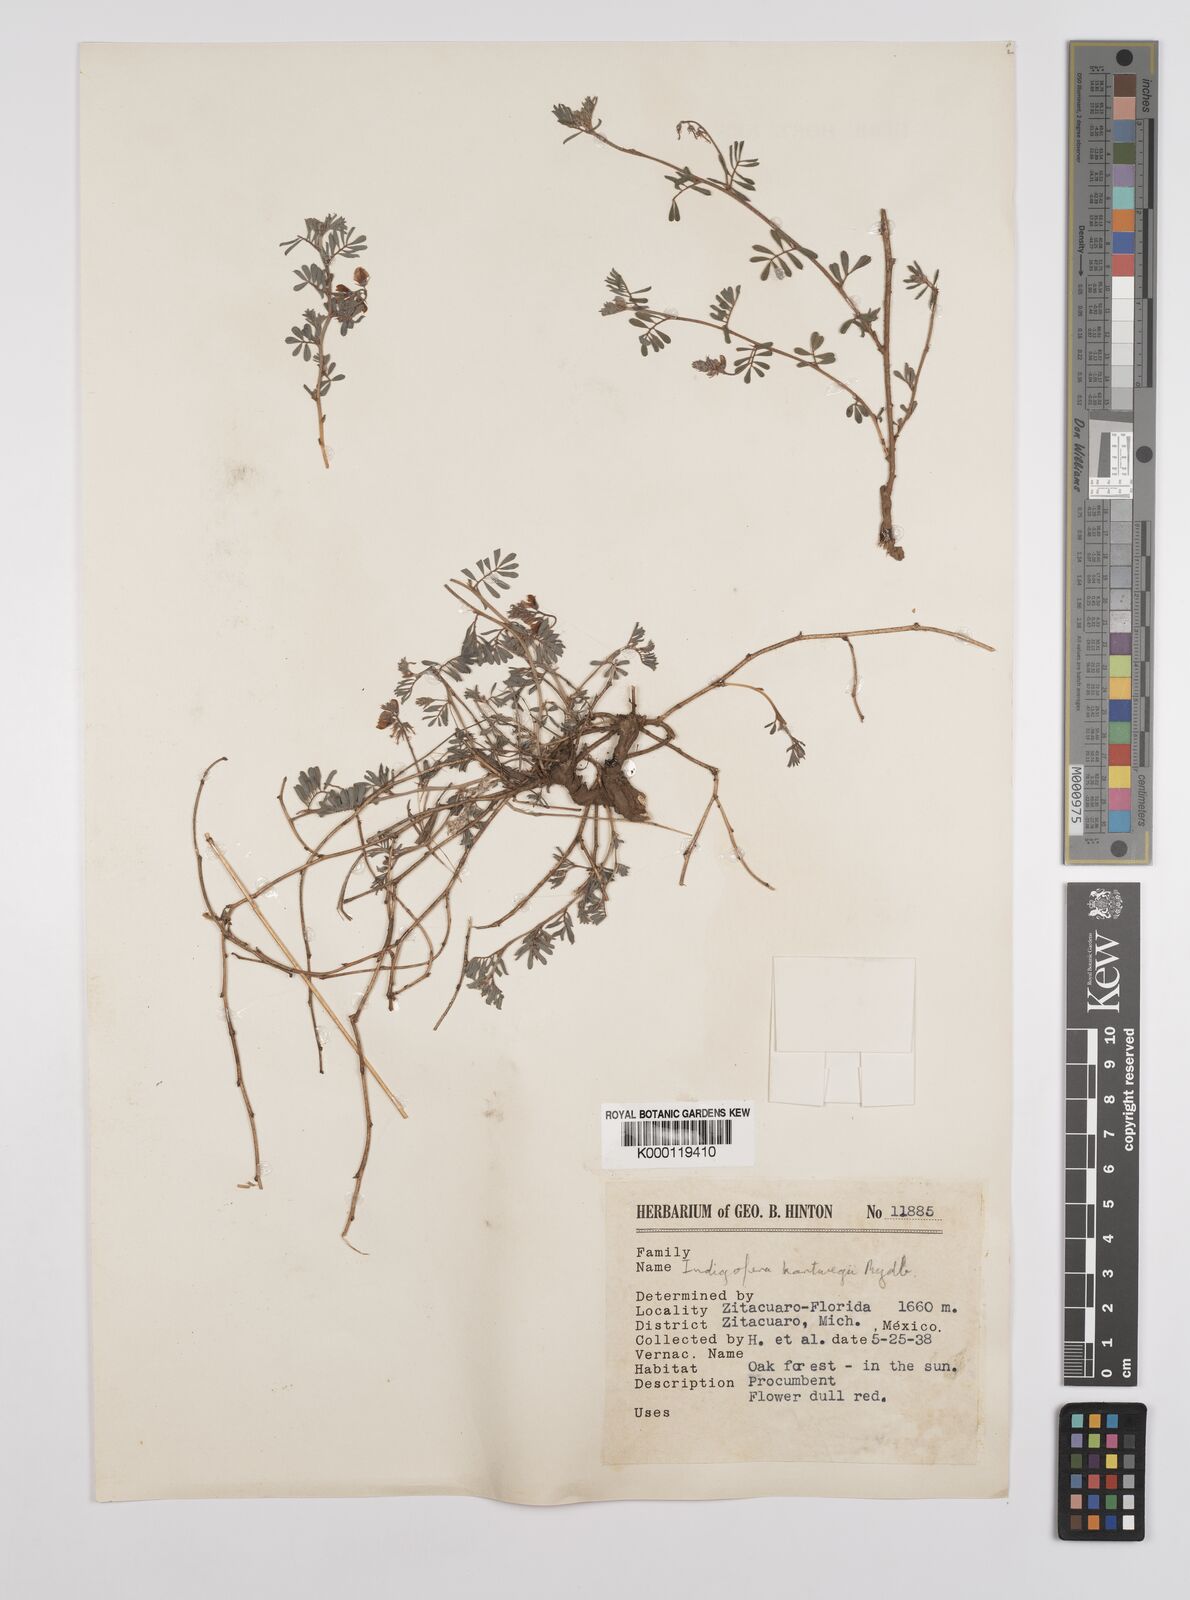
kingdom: Plantae
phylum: Tracheophyta
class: Magnoliopsida
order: Fabales
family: Fabaceae
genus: Indigofera
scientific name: Indigofera miniata
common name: Coast indigo
